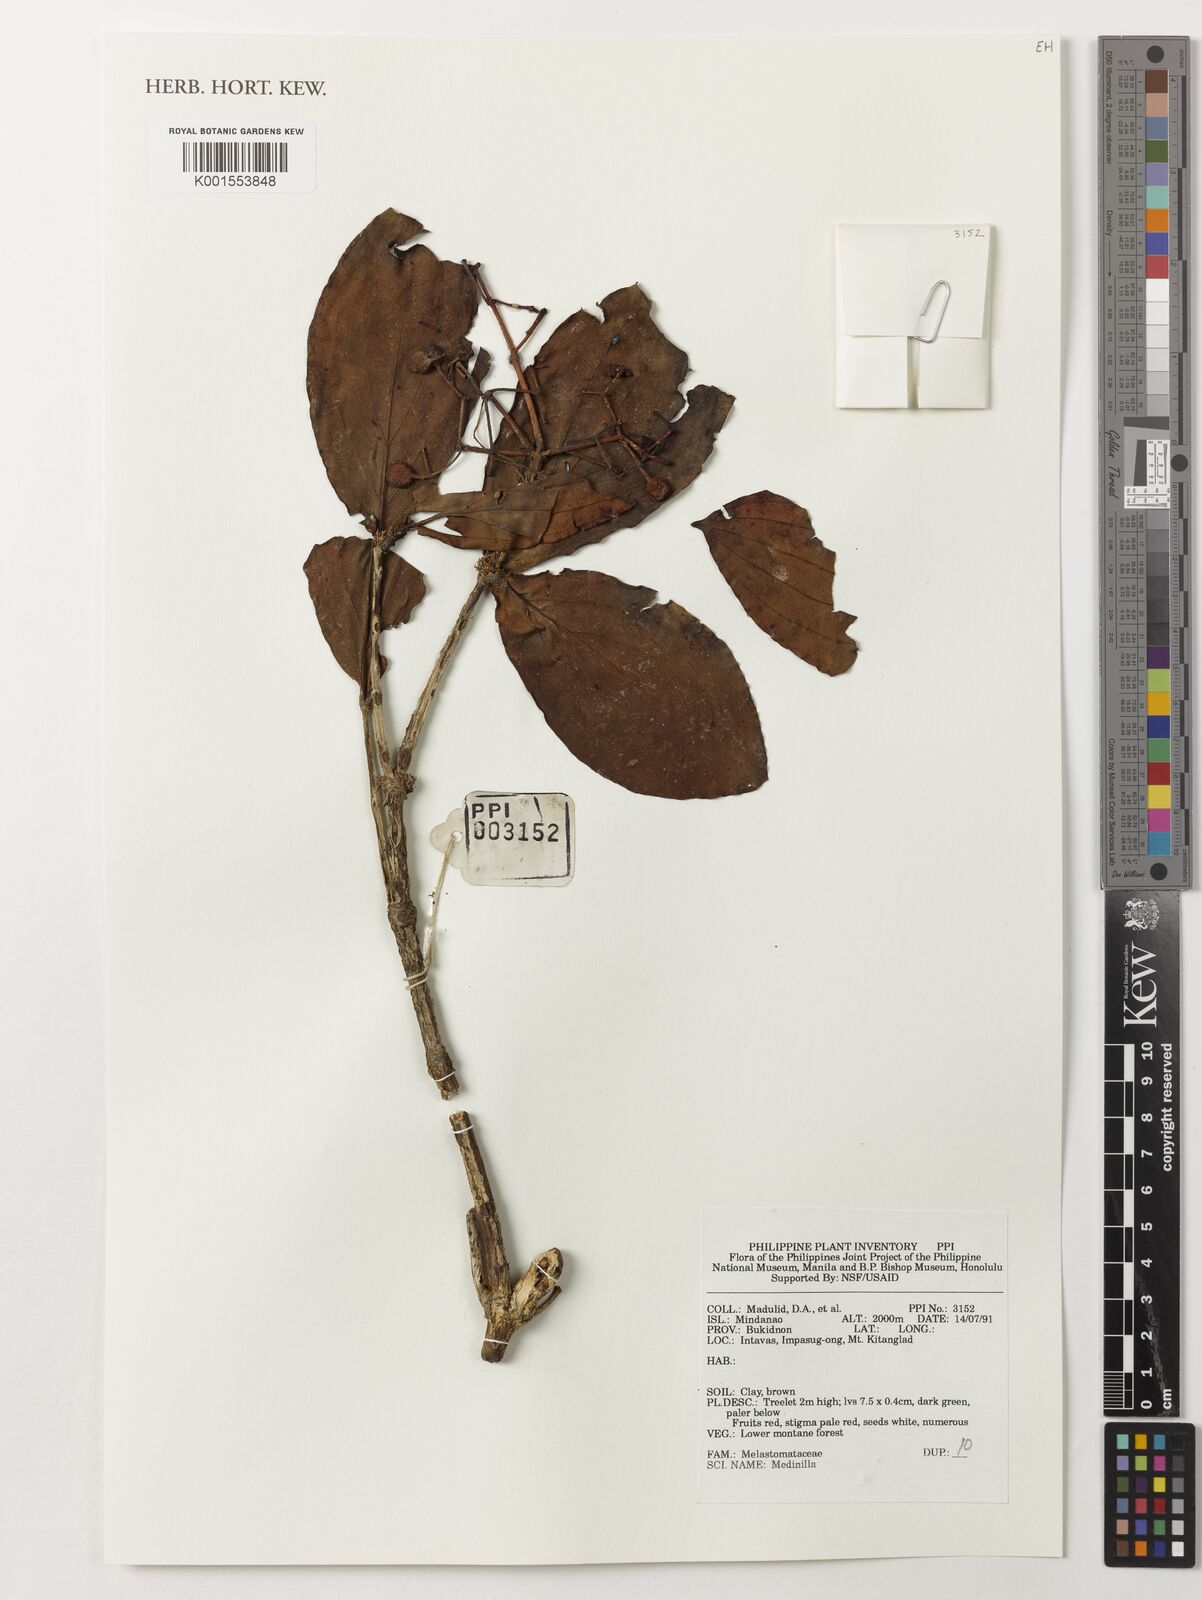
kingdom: Plantae
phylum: Tracheophyta
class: Magnoliopsida
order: Myrtales
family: Melastomataceae
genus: Medinilla
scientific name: Medinilla
